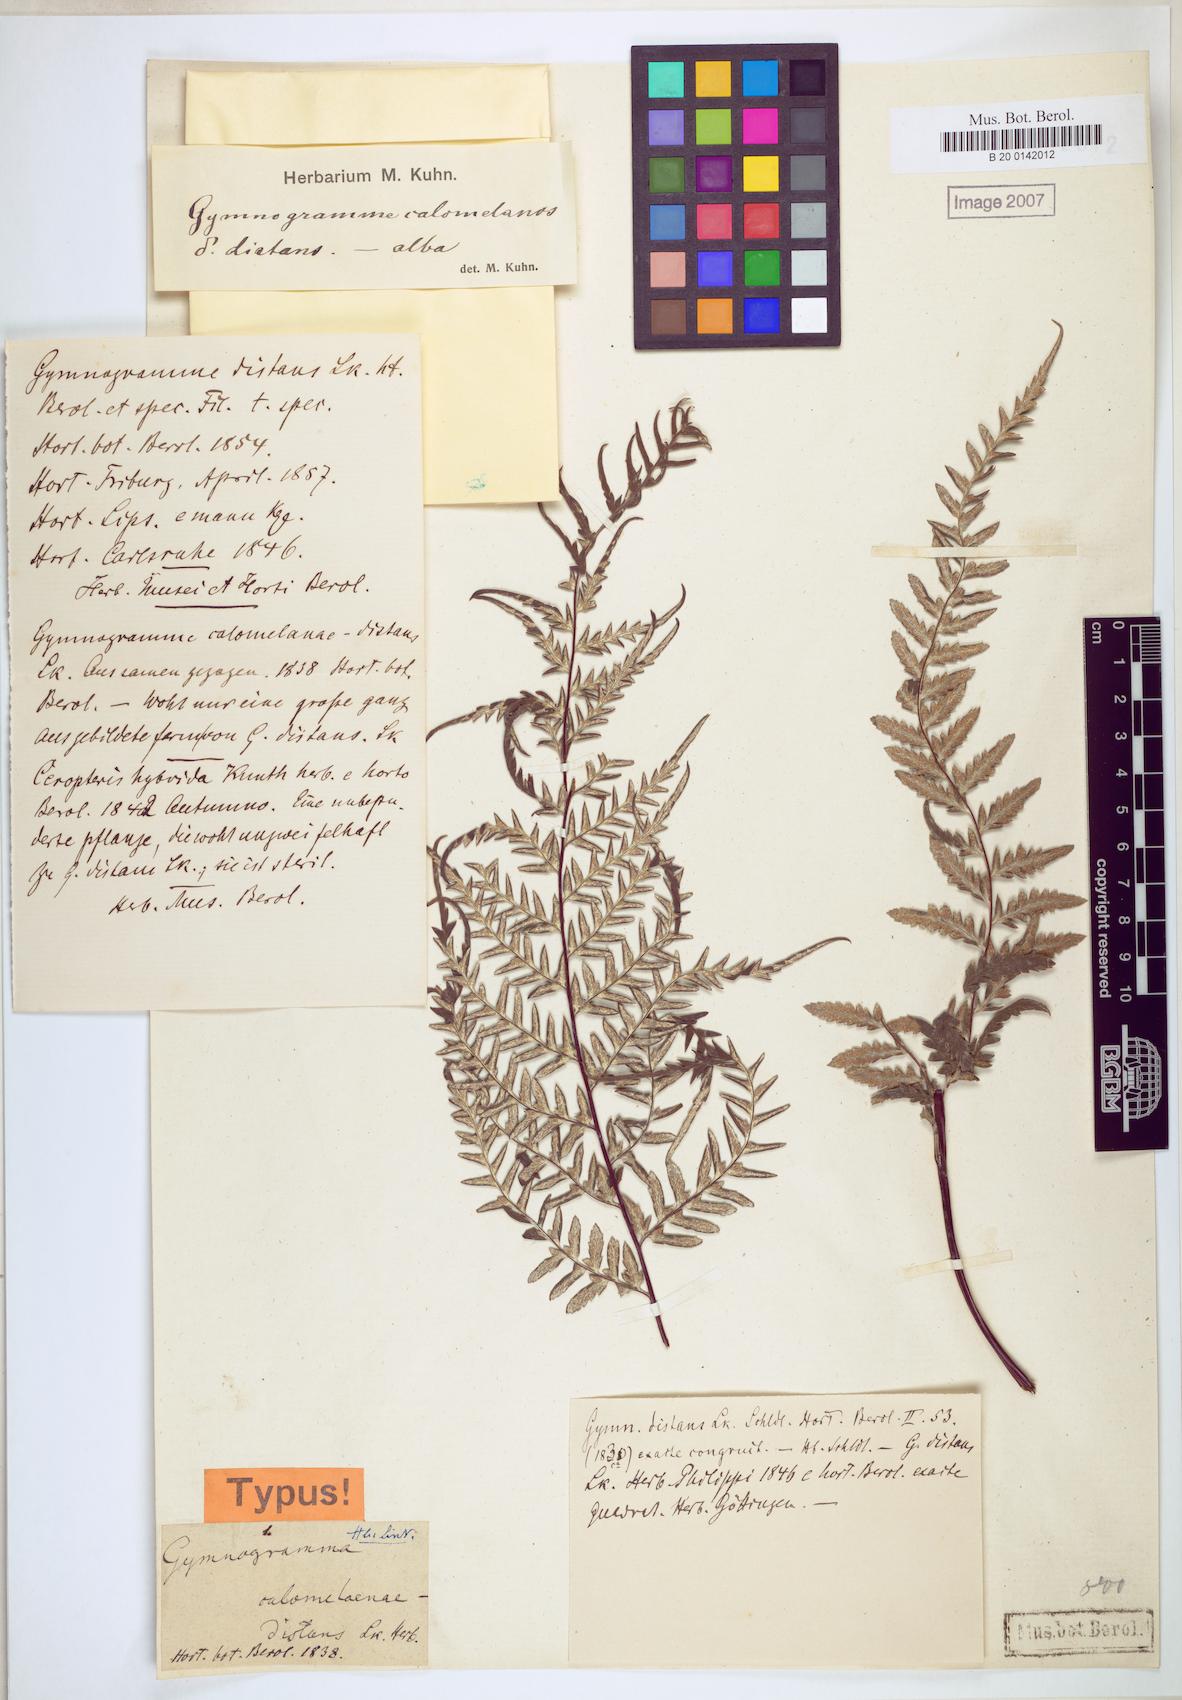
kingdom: Plantae
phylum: Tracheophyta
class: Polypodiopsida
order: Polypodiales
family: Pteridaceae
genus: Pityrogramma
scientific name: Pityrogramma distans
